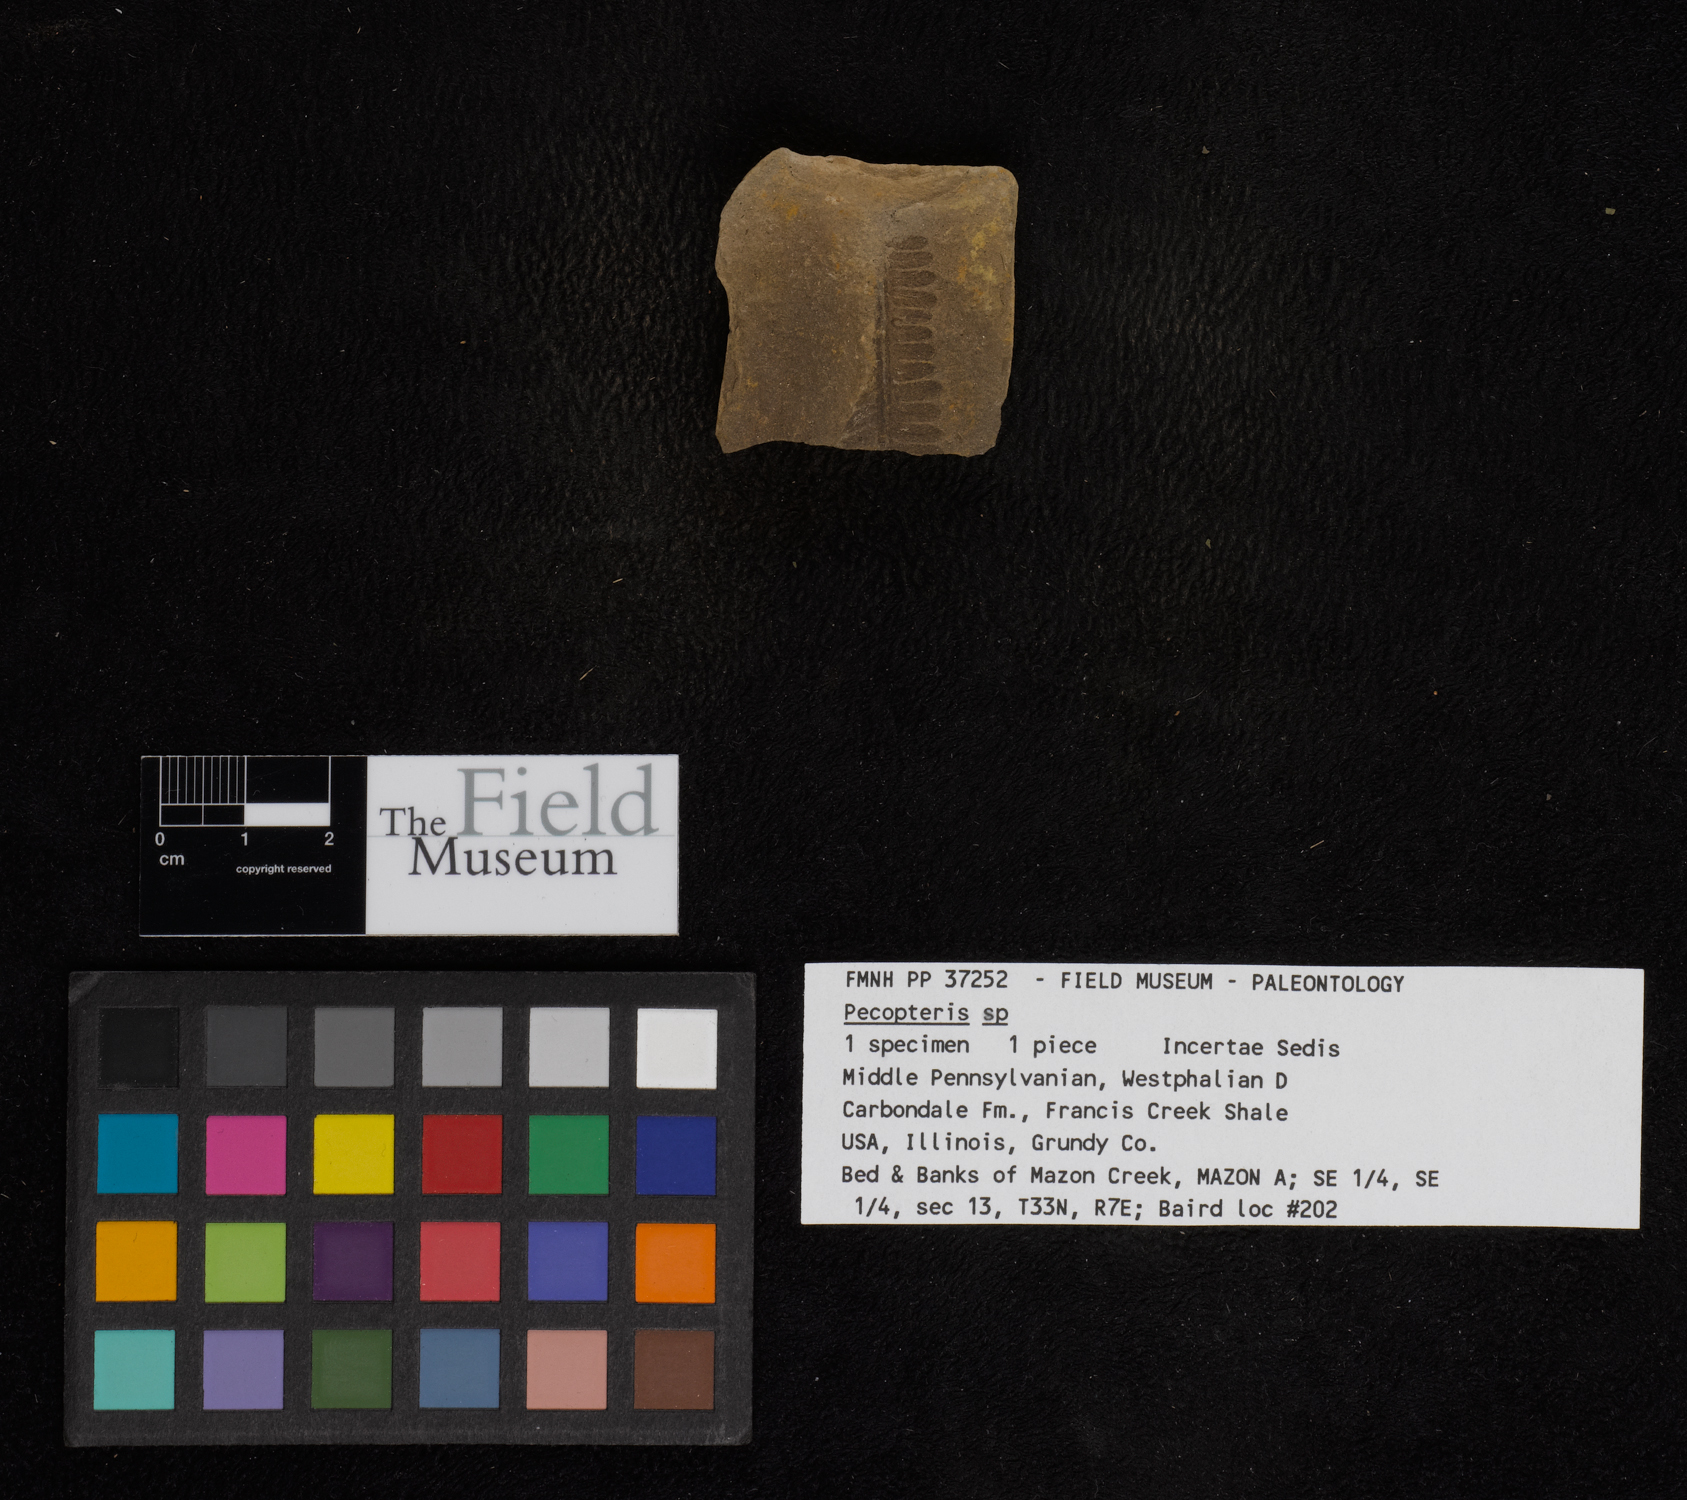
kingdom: Plantae
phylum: Tracheophyta
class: Polypodiopsida
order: Marattiales
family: Asterothecaceae
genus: Pecopteris
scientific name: Pecopteris
